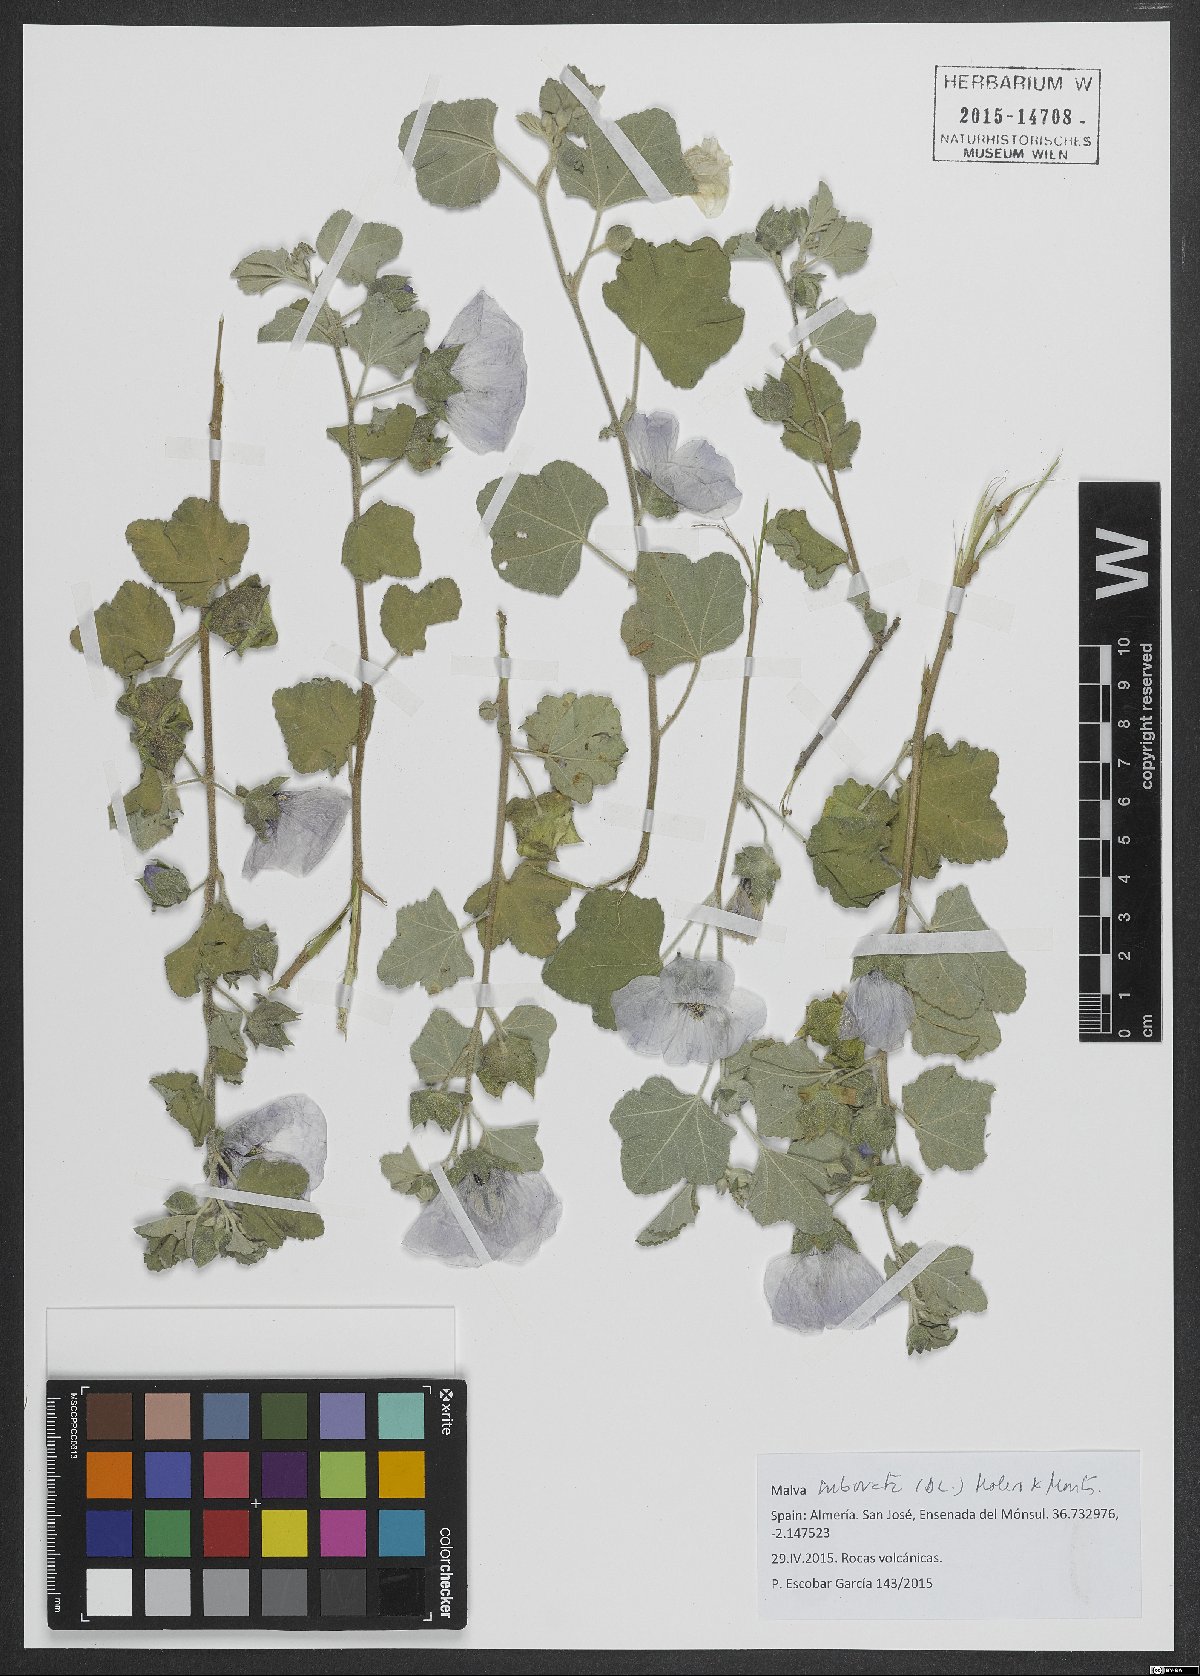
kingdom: Plantae
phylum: Tracheophyta
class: Magnoliopsida
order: Malvales
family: Malvaceae
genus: Malva
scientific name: Malva subovata
